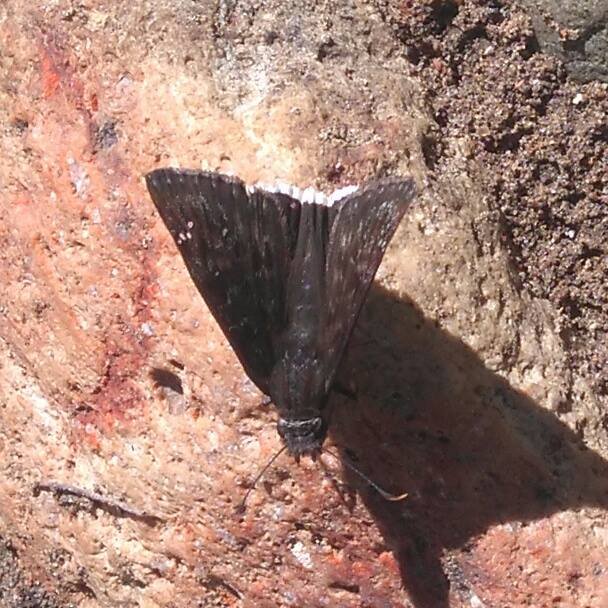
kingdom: Animalia
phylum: Arthropoda
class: Insecta
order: Lepidoptera
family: Hesperiidae
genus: Erynnis
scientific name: Erynnis tristis
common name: Mournful Duskywing
